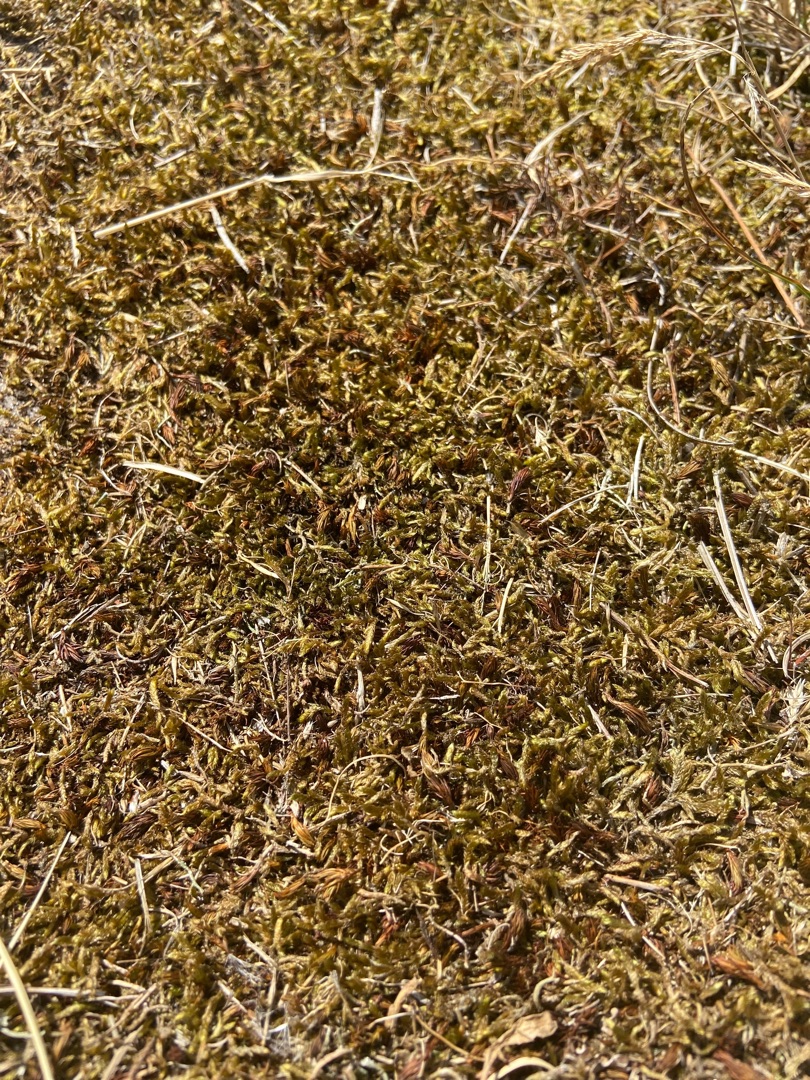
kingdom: Plantae
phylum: Bryophyta
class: Bryopsida
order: Hypnales
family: Hypnaceae
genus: Hypnum
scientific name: Hypnum cupressiforme
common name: Almindelig cypresmos
